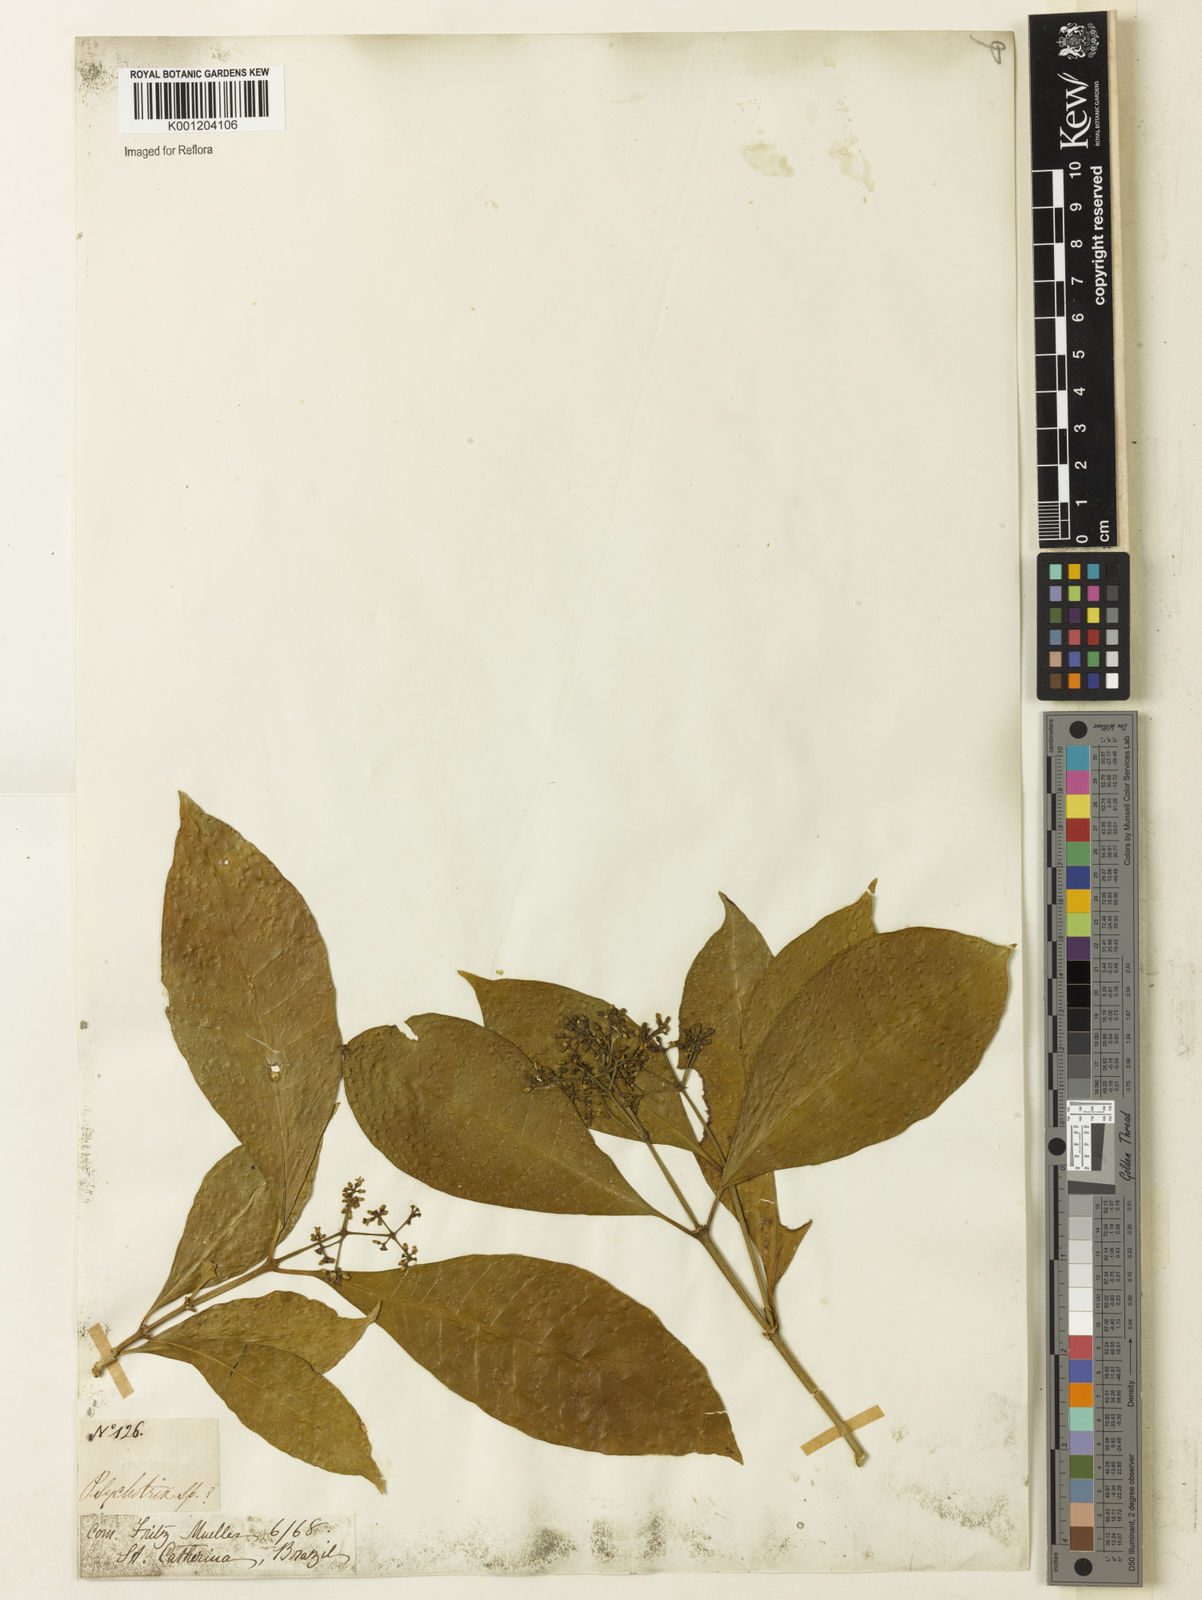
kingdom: Plantae
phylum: Tracheophyta
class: Magnoliopsida
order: Gentianales
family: Rubiaceae
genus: Eumachia
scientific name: Eumachia
